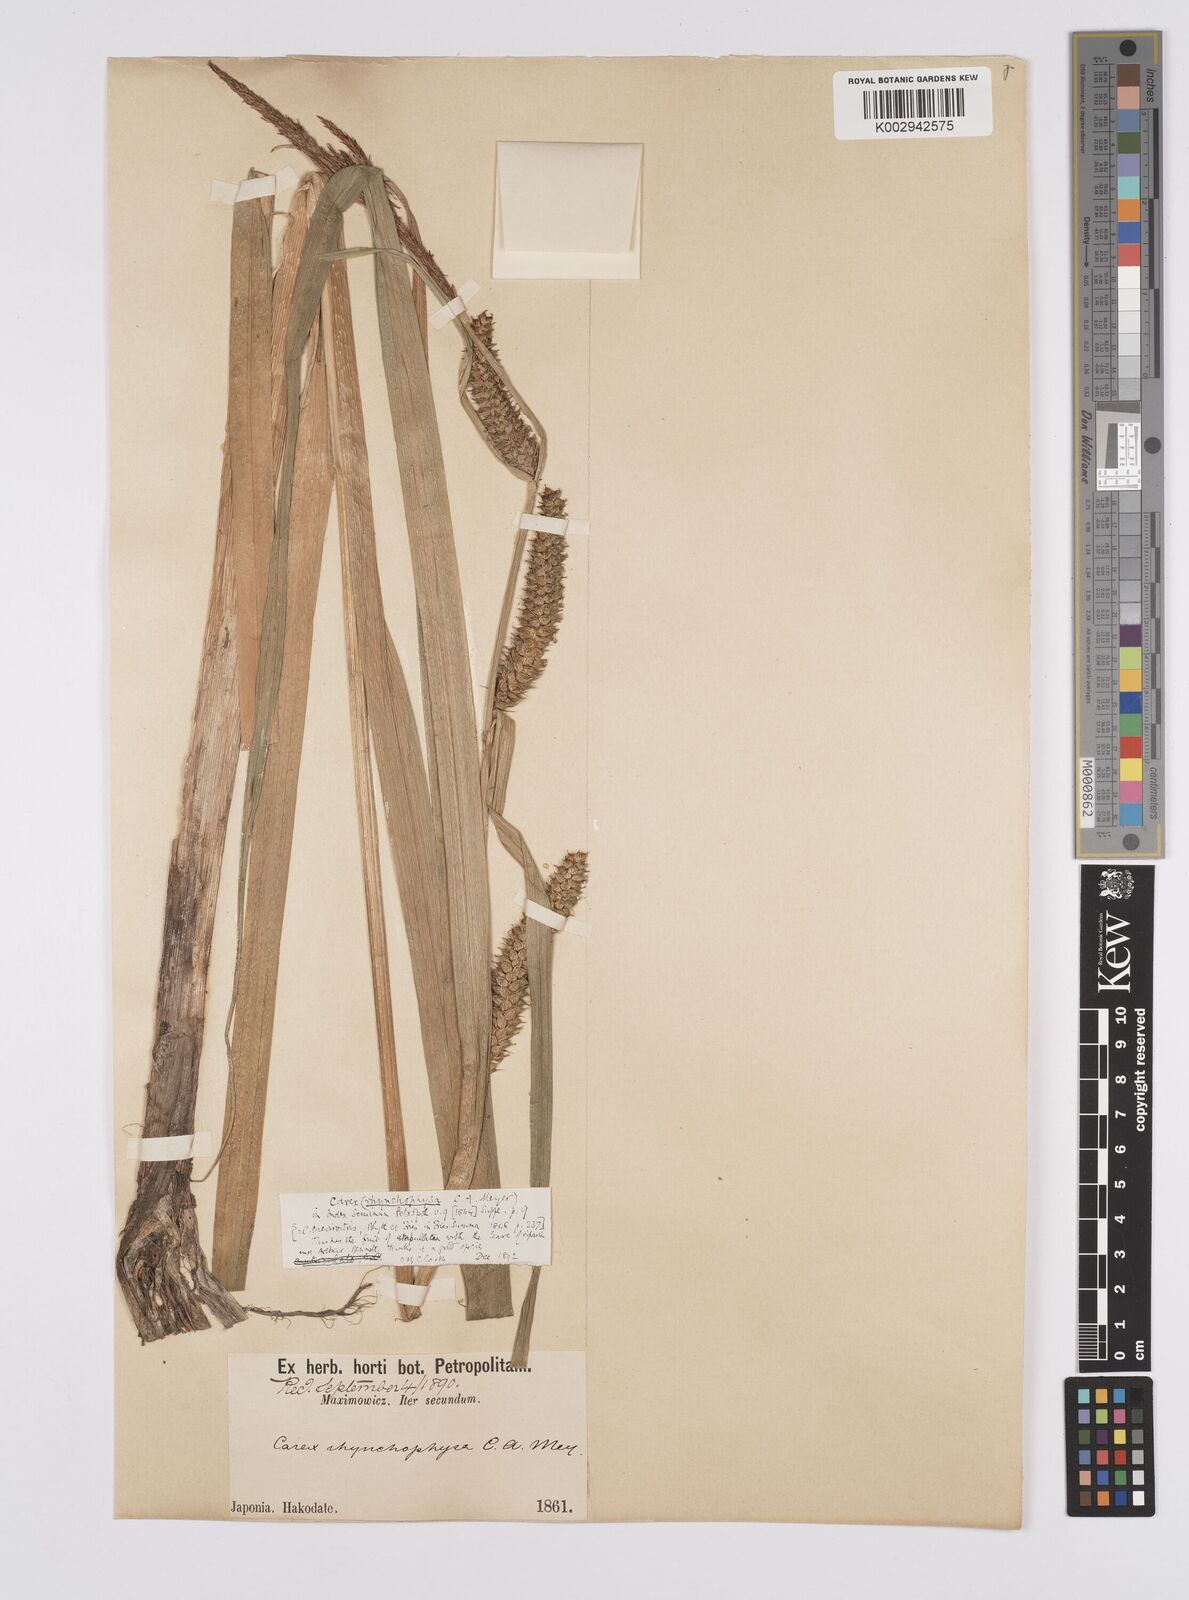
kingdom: Plantae
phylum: Tracheophyta
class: Liliopsida
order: Poales
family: Cyperaceae
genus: Carex
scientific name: Carex utriculata
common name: Beaked sedge
